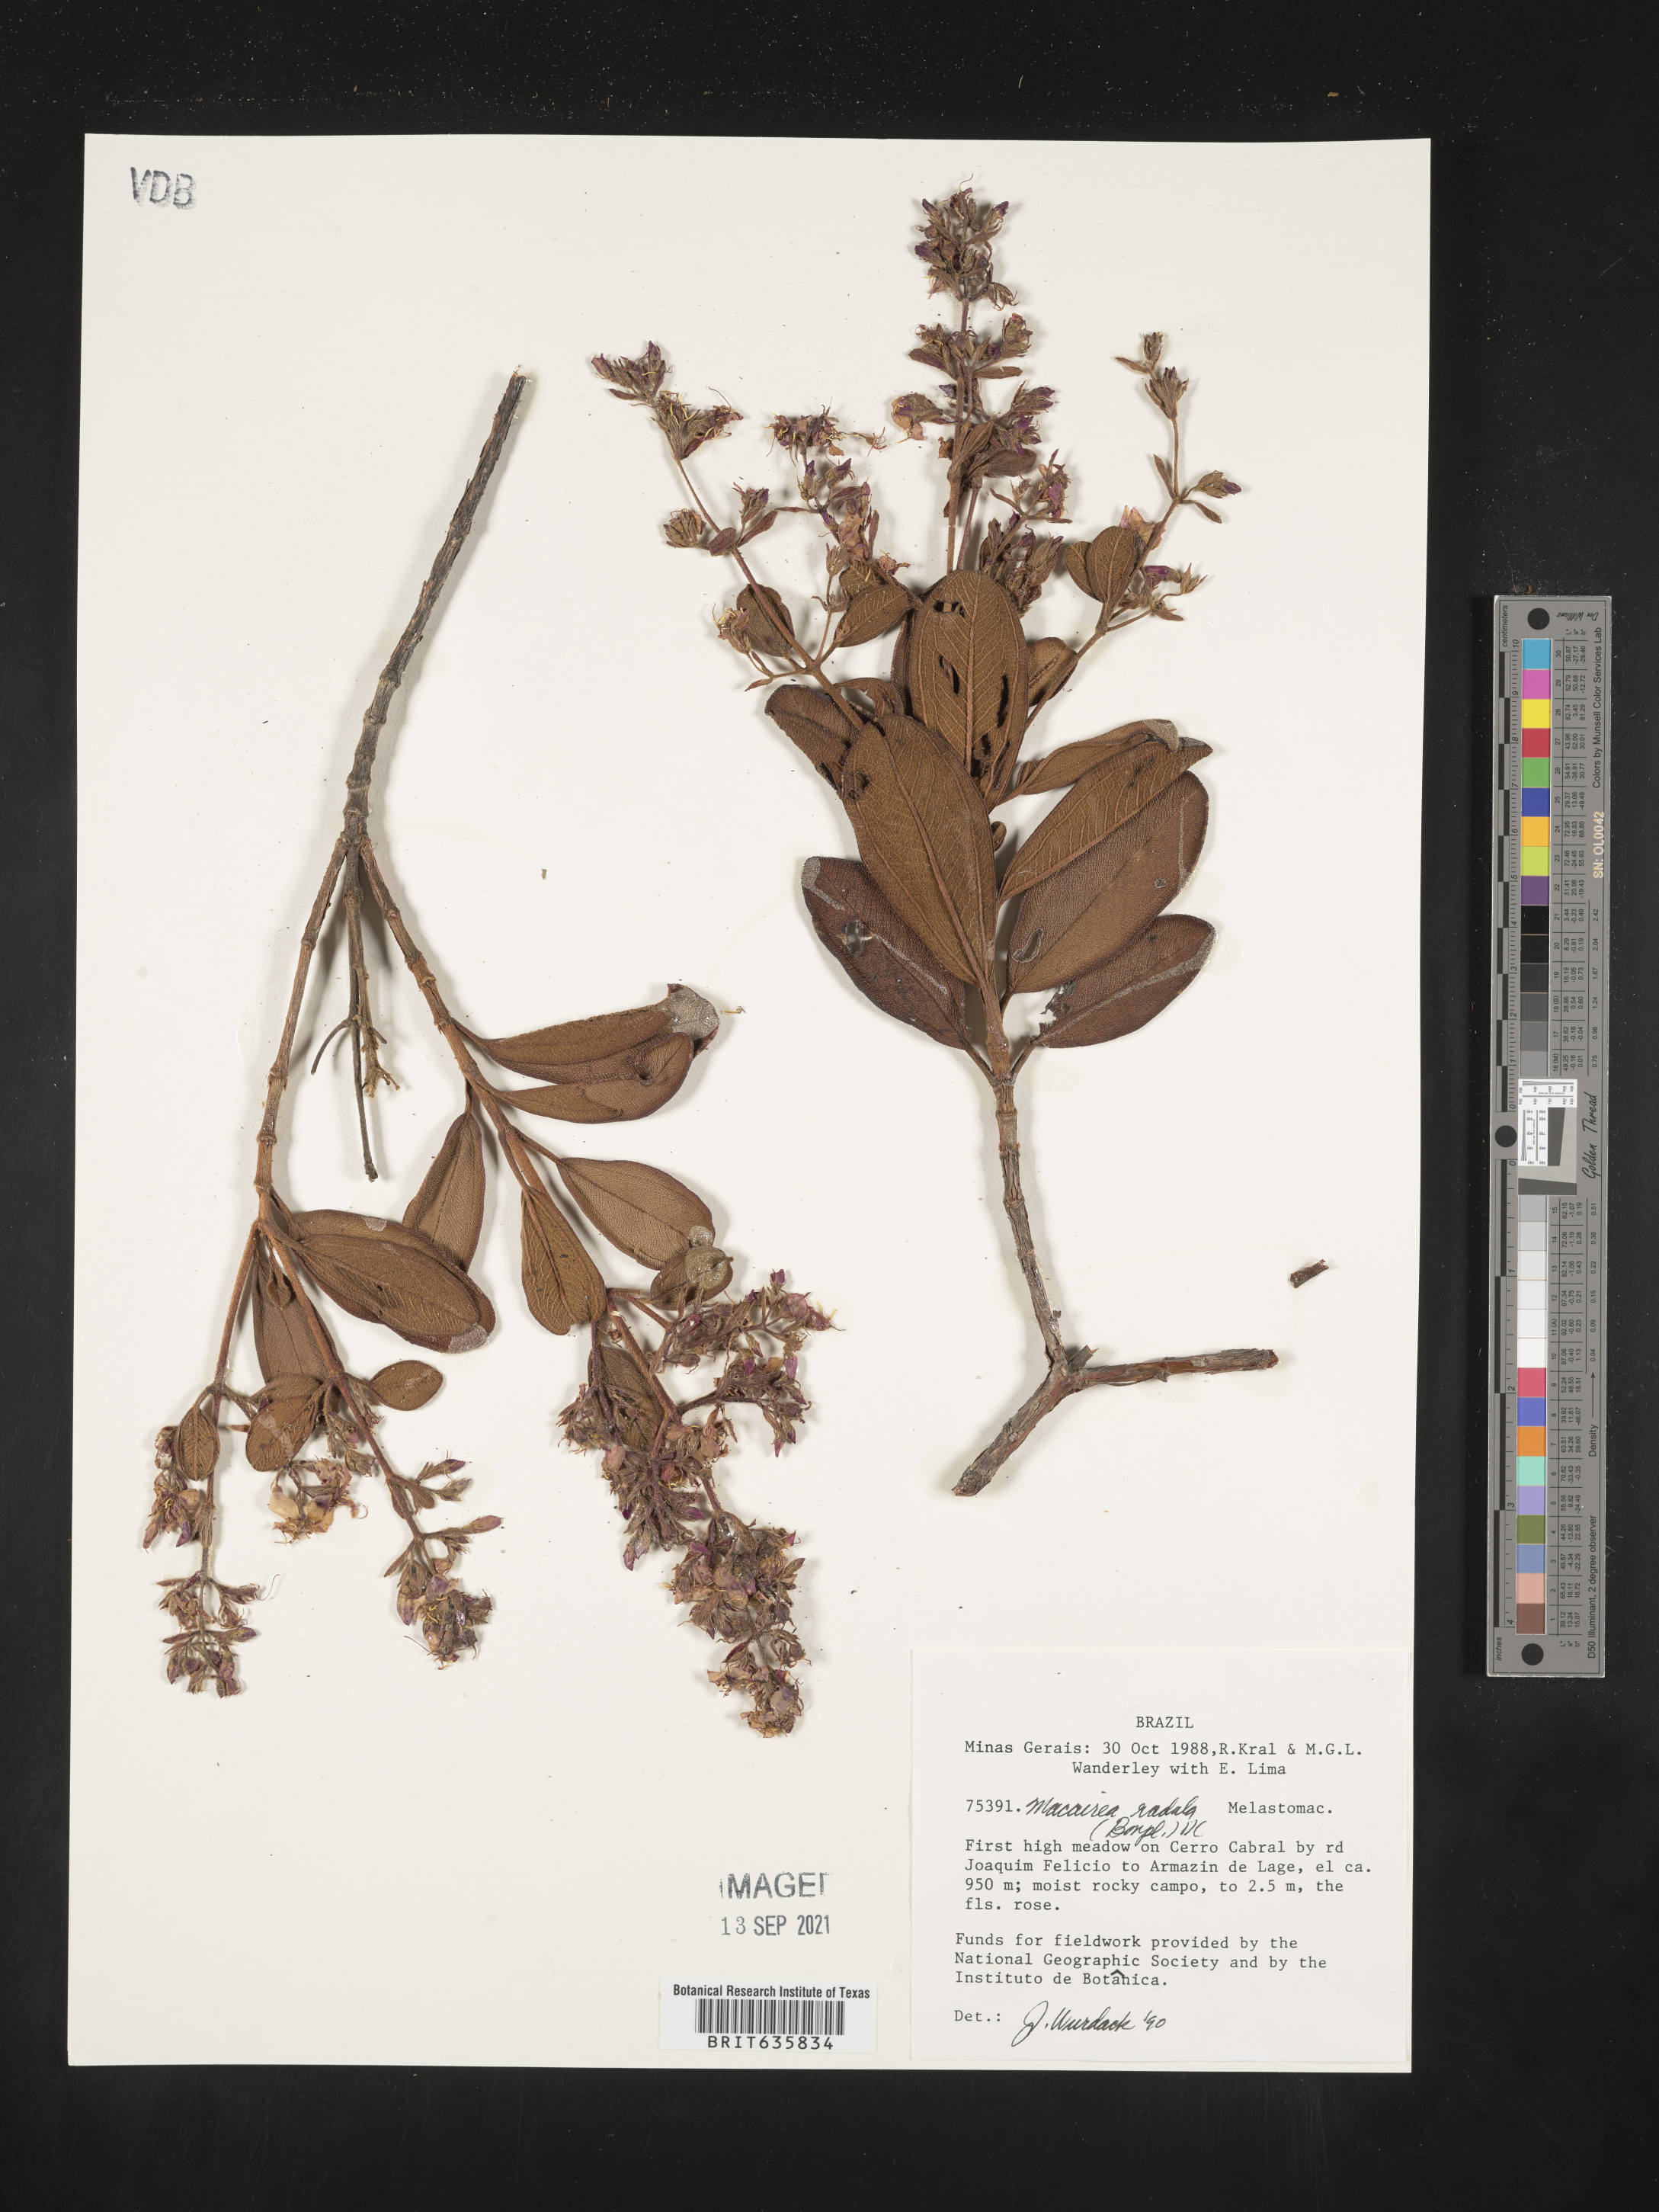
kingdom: Plantae
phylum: Tracheophyta
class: Magnoliopsida
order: Myrtales
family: Melastomataceae
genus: Macairea
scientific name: Macairea
